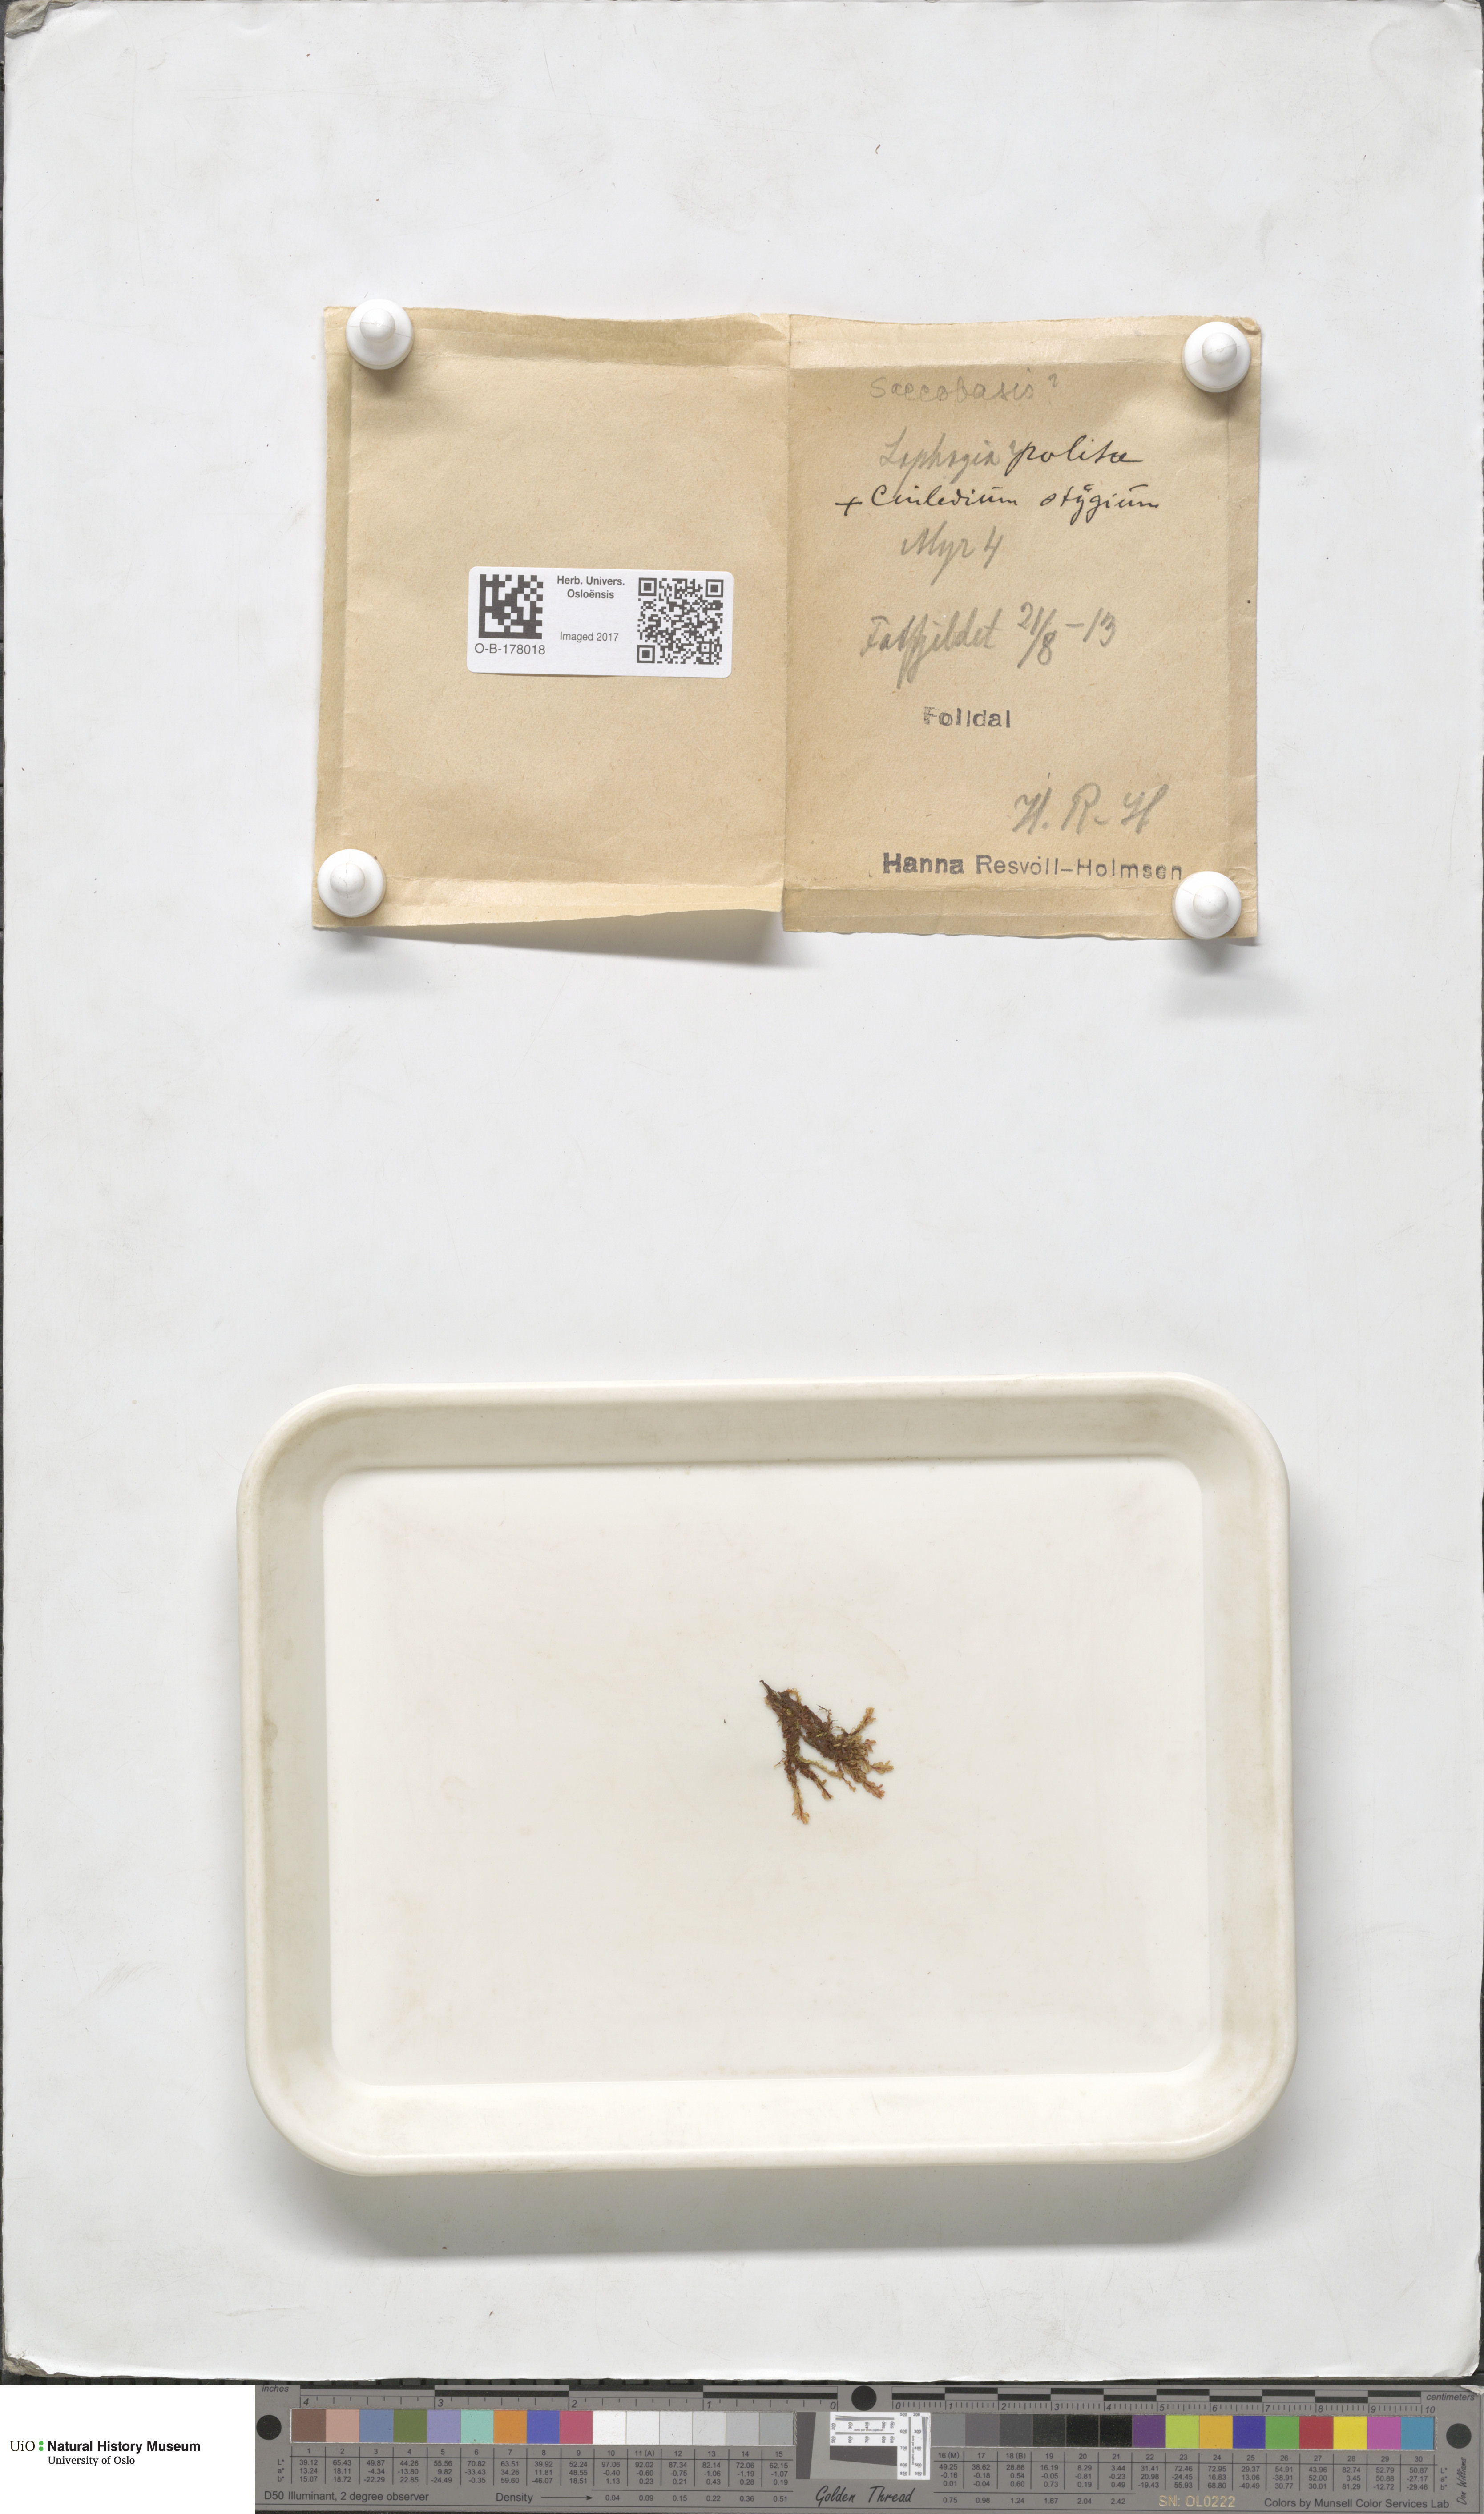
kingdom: Plantae
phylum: Bryophyta
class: Bryopsida
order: Bryales
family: Mniaceae
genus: Cinclidium
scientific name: Cinclidium stygium
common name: Sooty cupola moss
